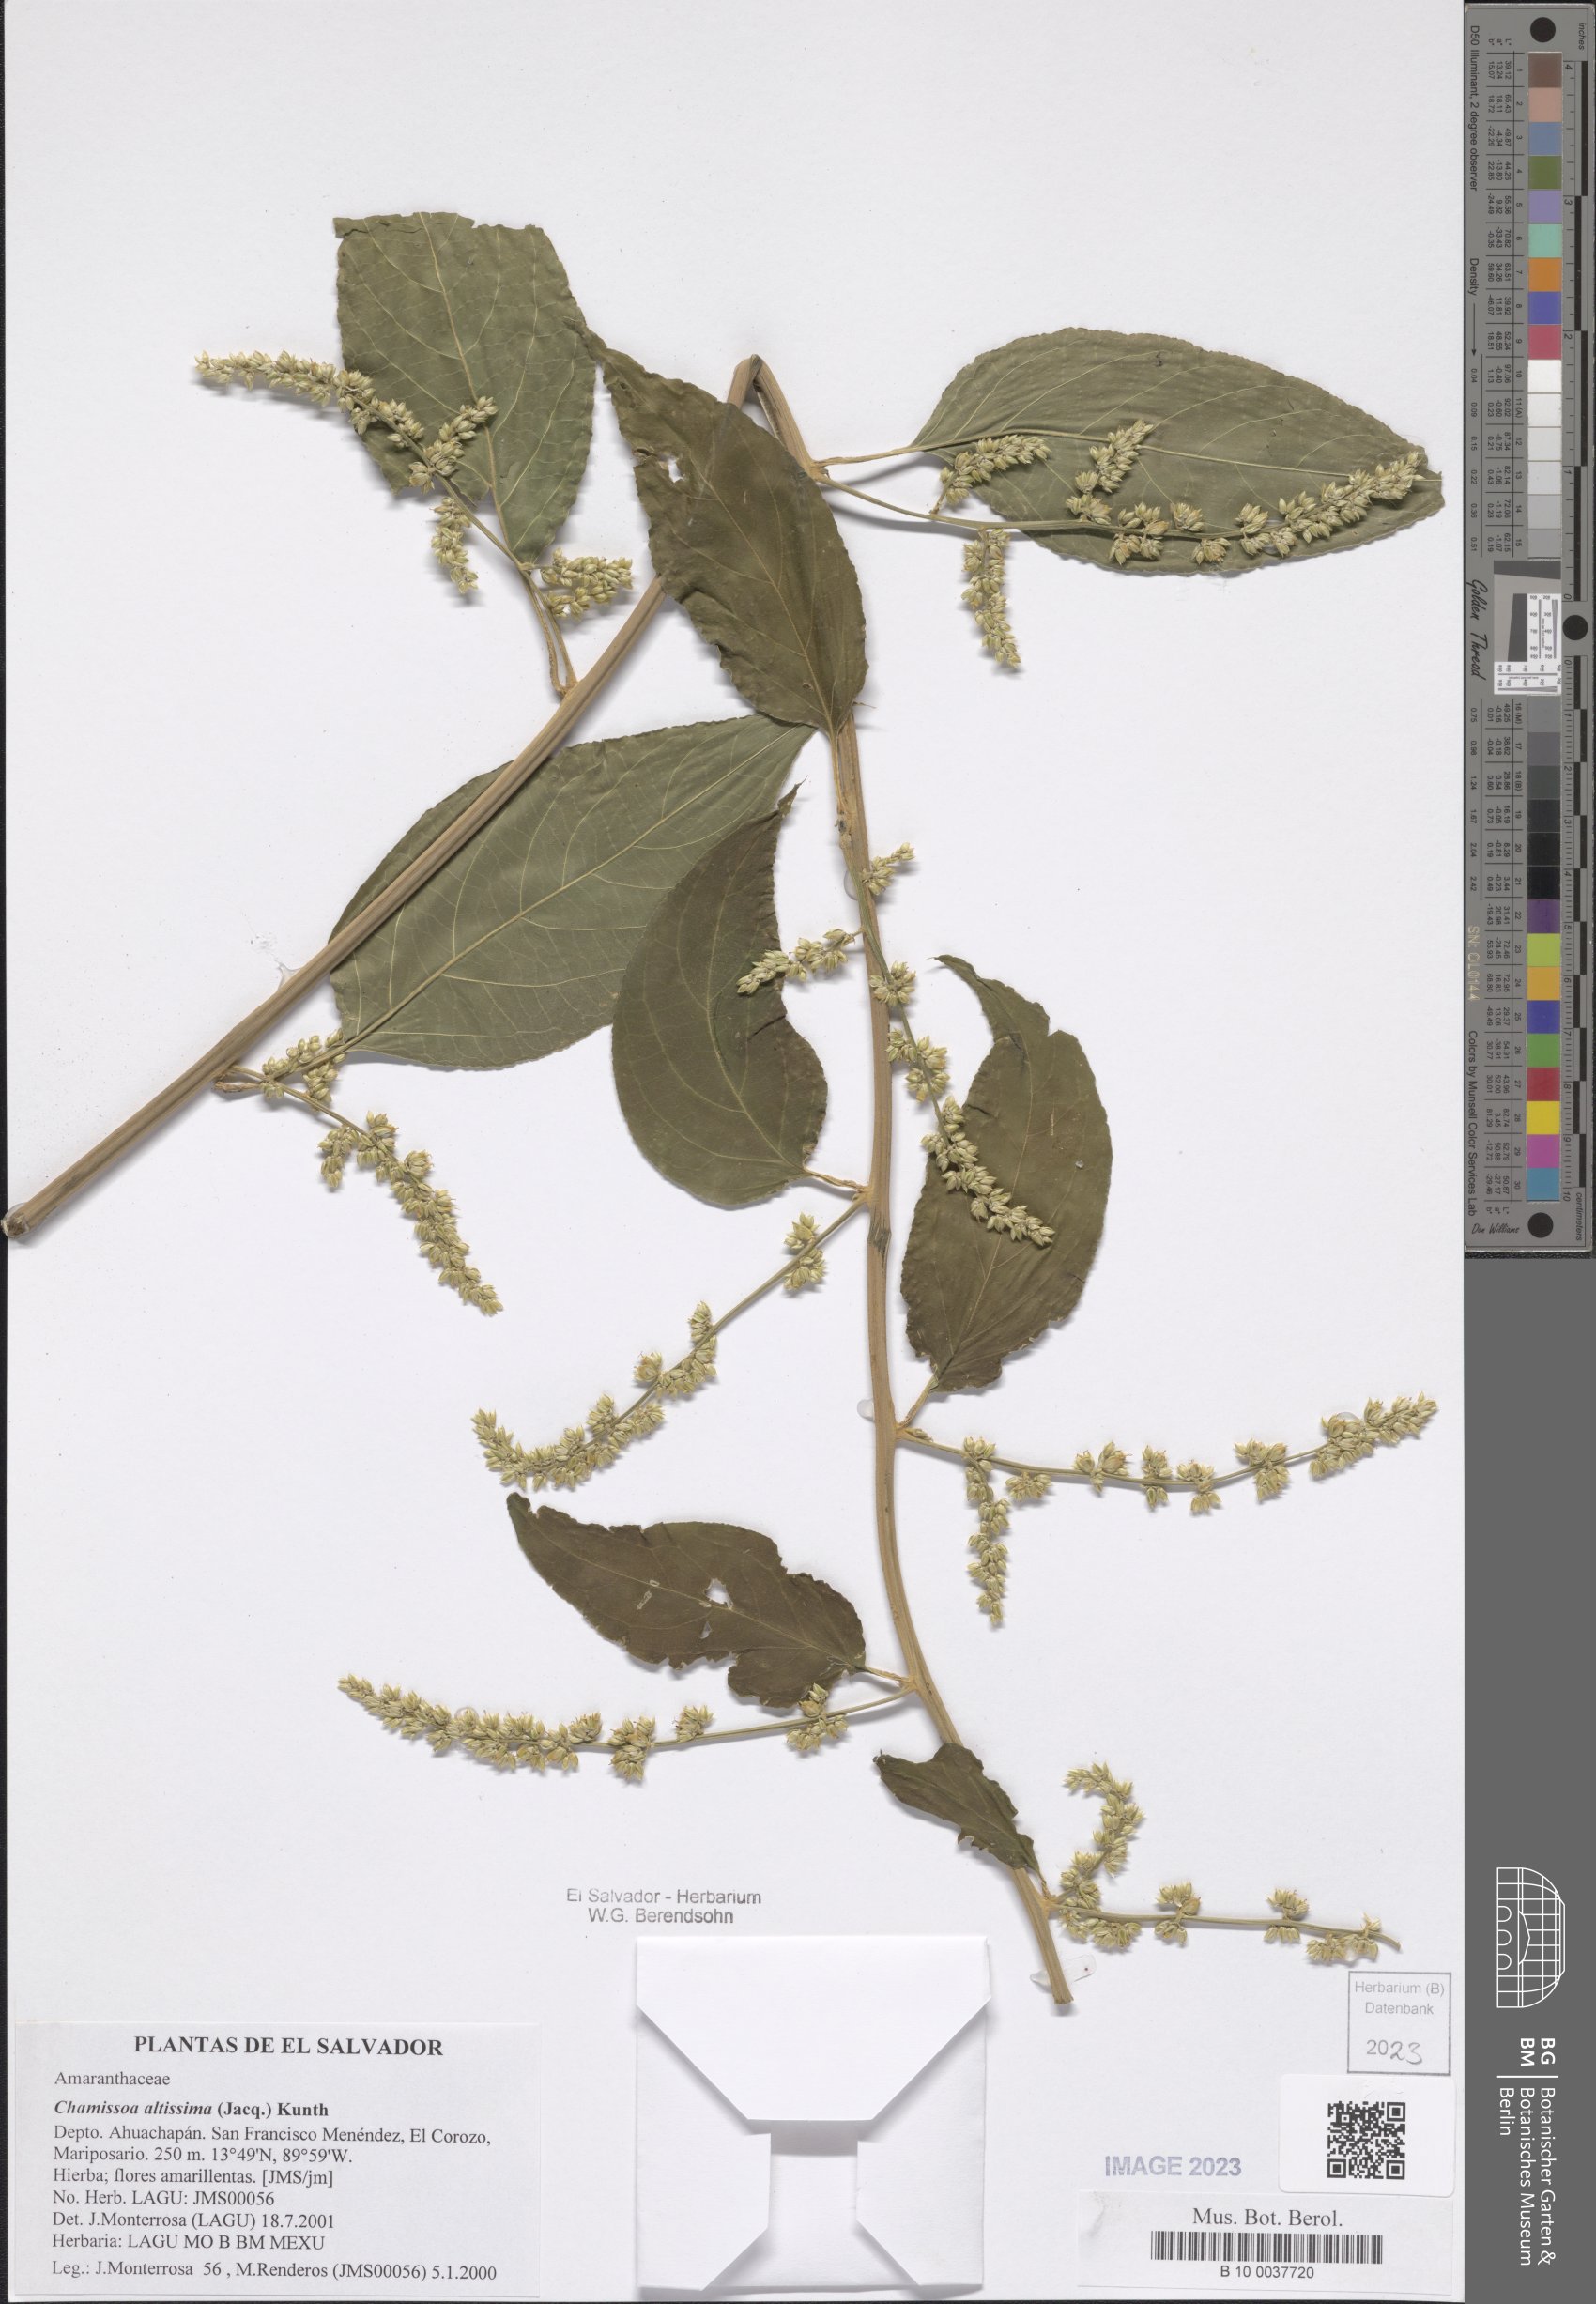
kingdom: Plantae
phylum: Tracheophyta
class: Magnoliopsida
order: Caryophyllales
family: Amaranthaceae
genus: Chamissoa
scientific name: Chamissoa altissima
